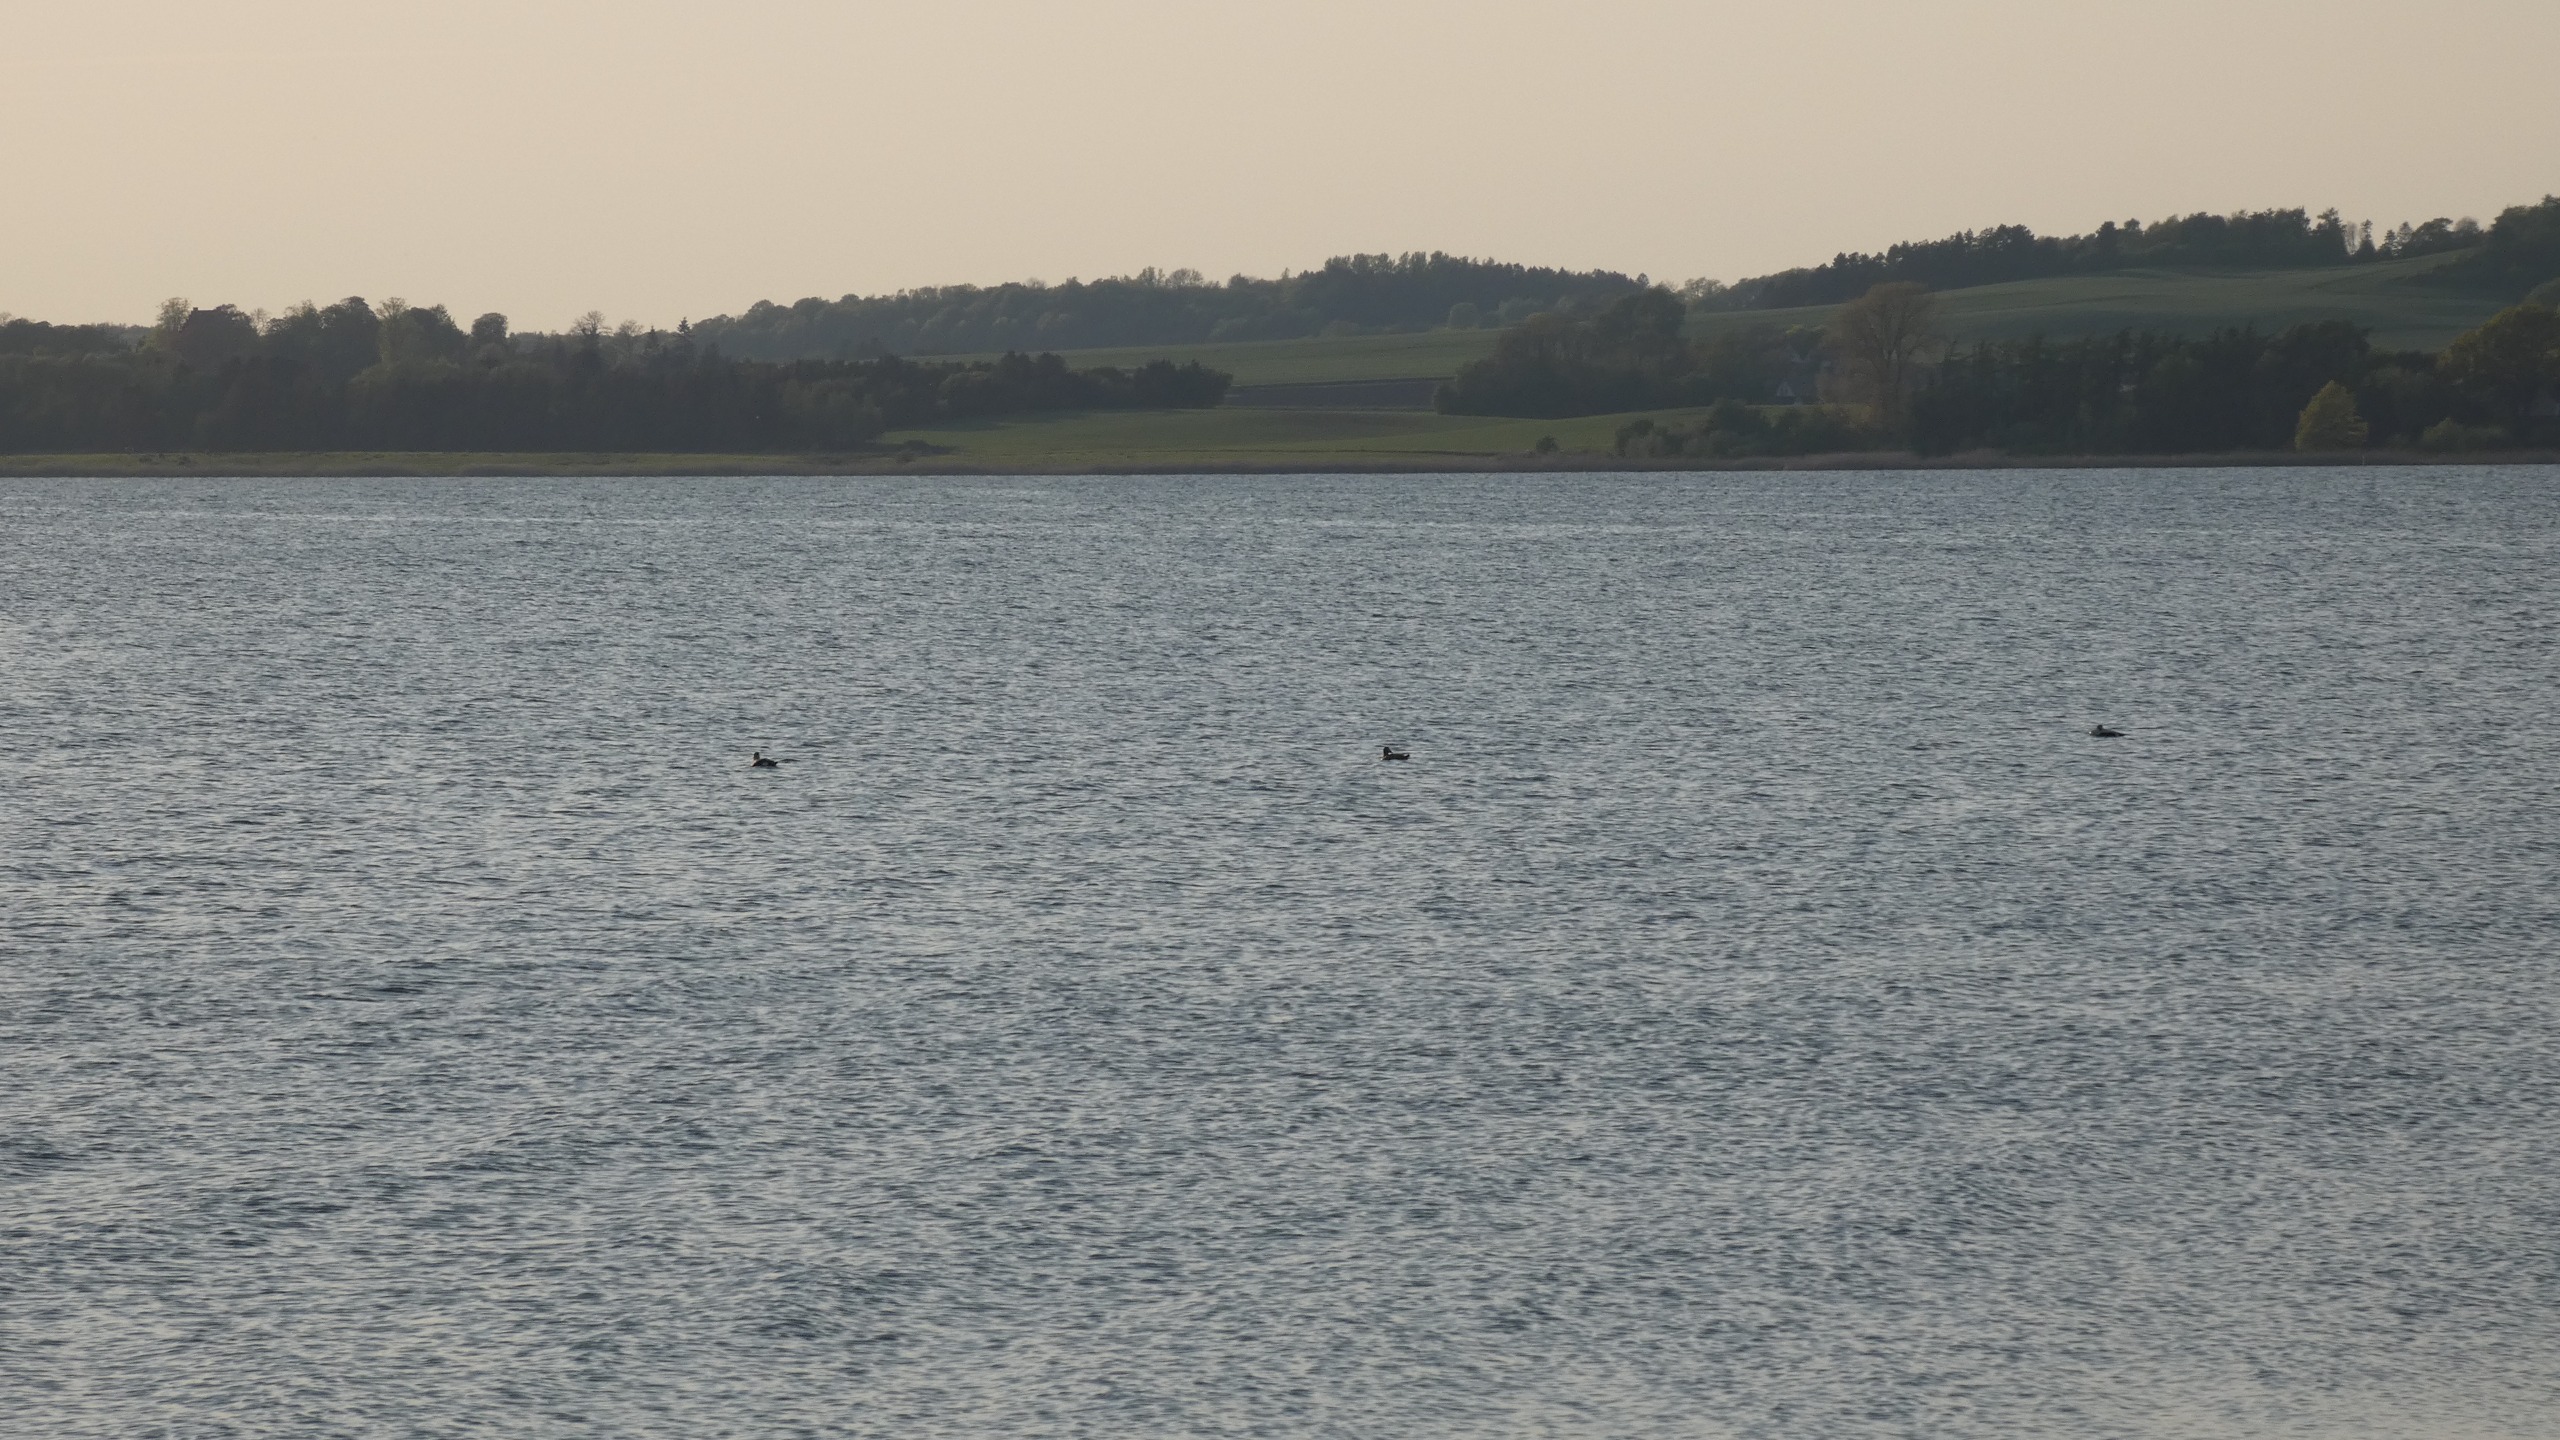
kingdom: Animalia
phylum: Chordata
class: Aves
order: Anseriformes
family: Anatidae
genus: Somateria
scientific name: Somateria mollissima
